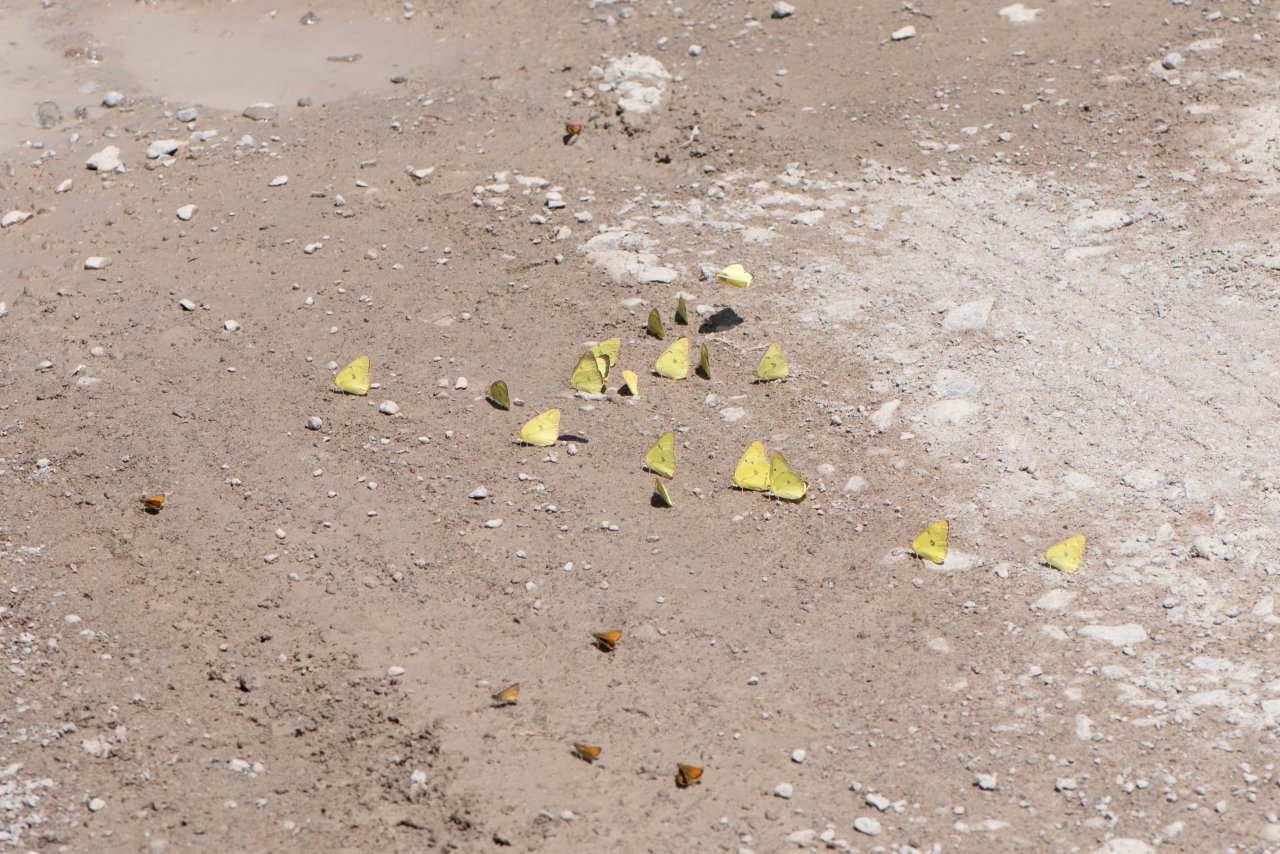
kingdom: Animalia
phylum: Arthropoda
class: Insecta
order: Lepidoptera
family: Hesperiidae
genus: Thymelicus
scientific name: Thymelicus lineola
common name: European Skipper
